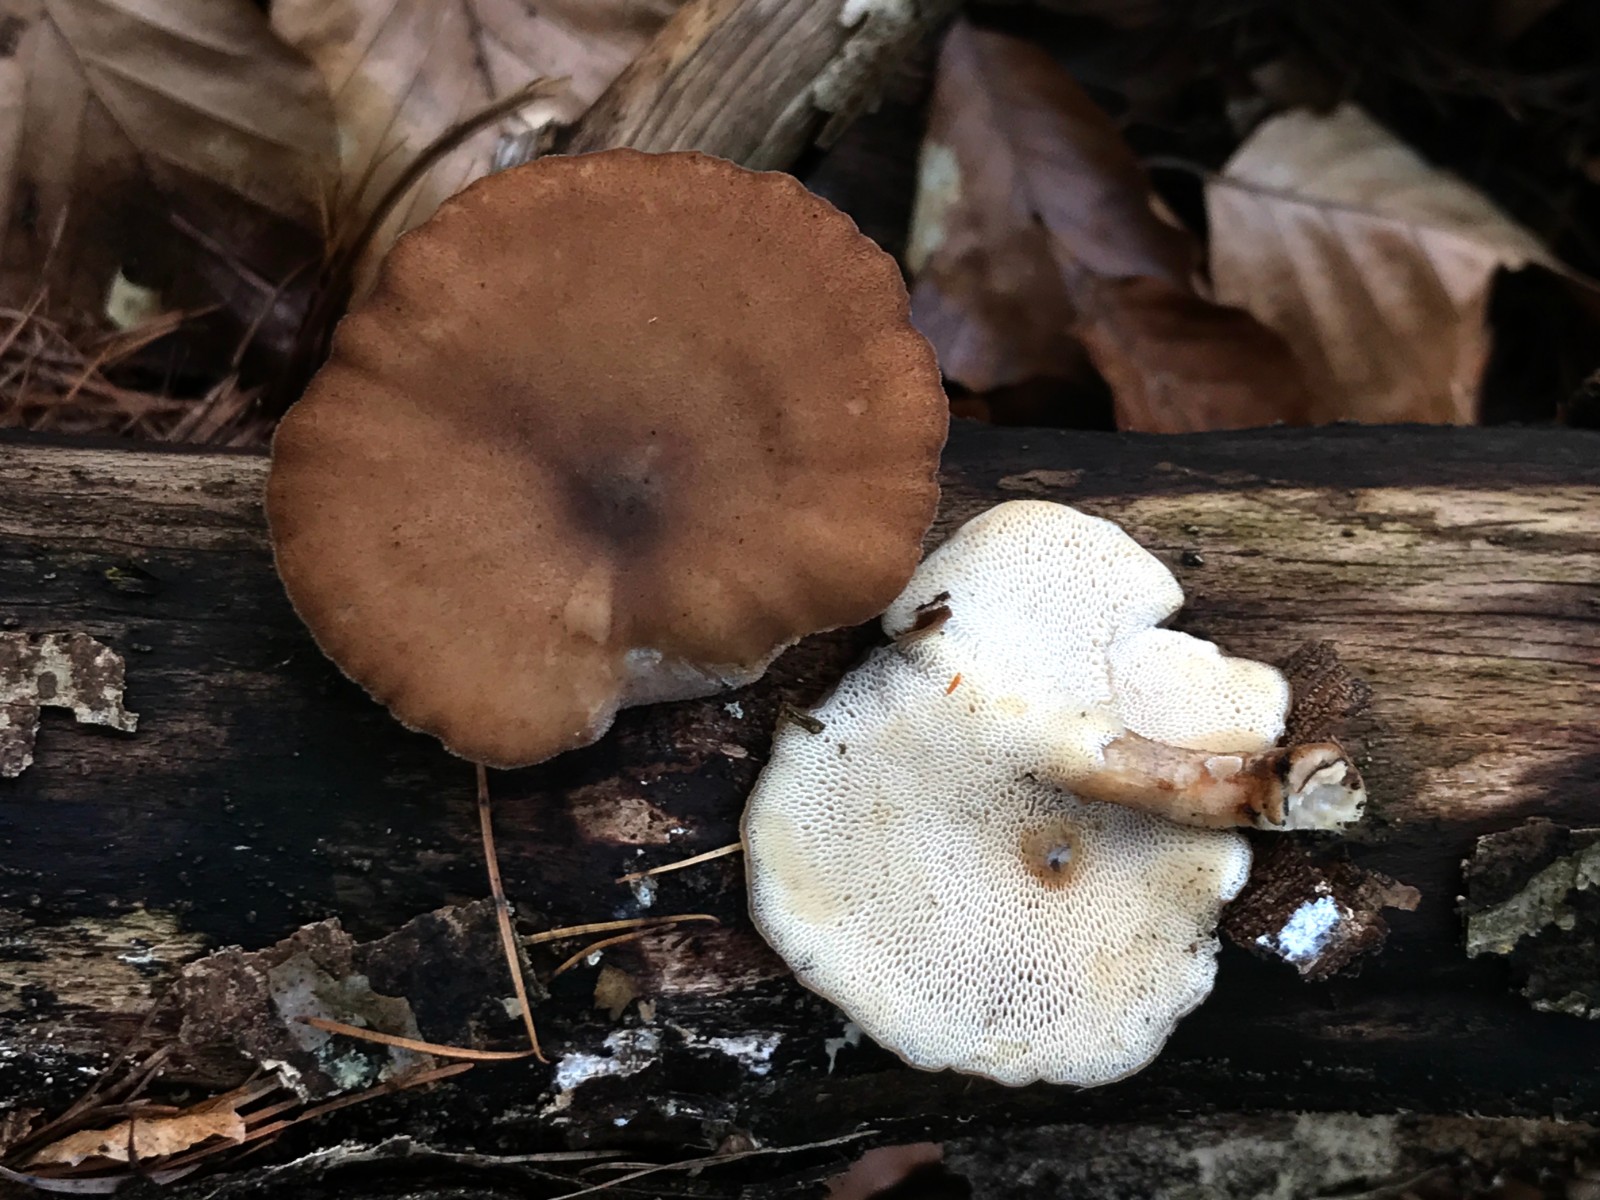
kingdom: Fungi
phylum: Basidiomycota
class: Agaricomycetes
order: Polyporales
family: Polyporaceae
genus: Lentinus
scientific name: Lentinus brumalis
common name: vinter-stilkporesvamp
